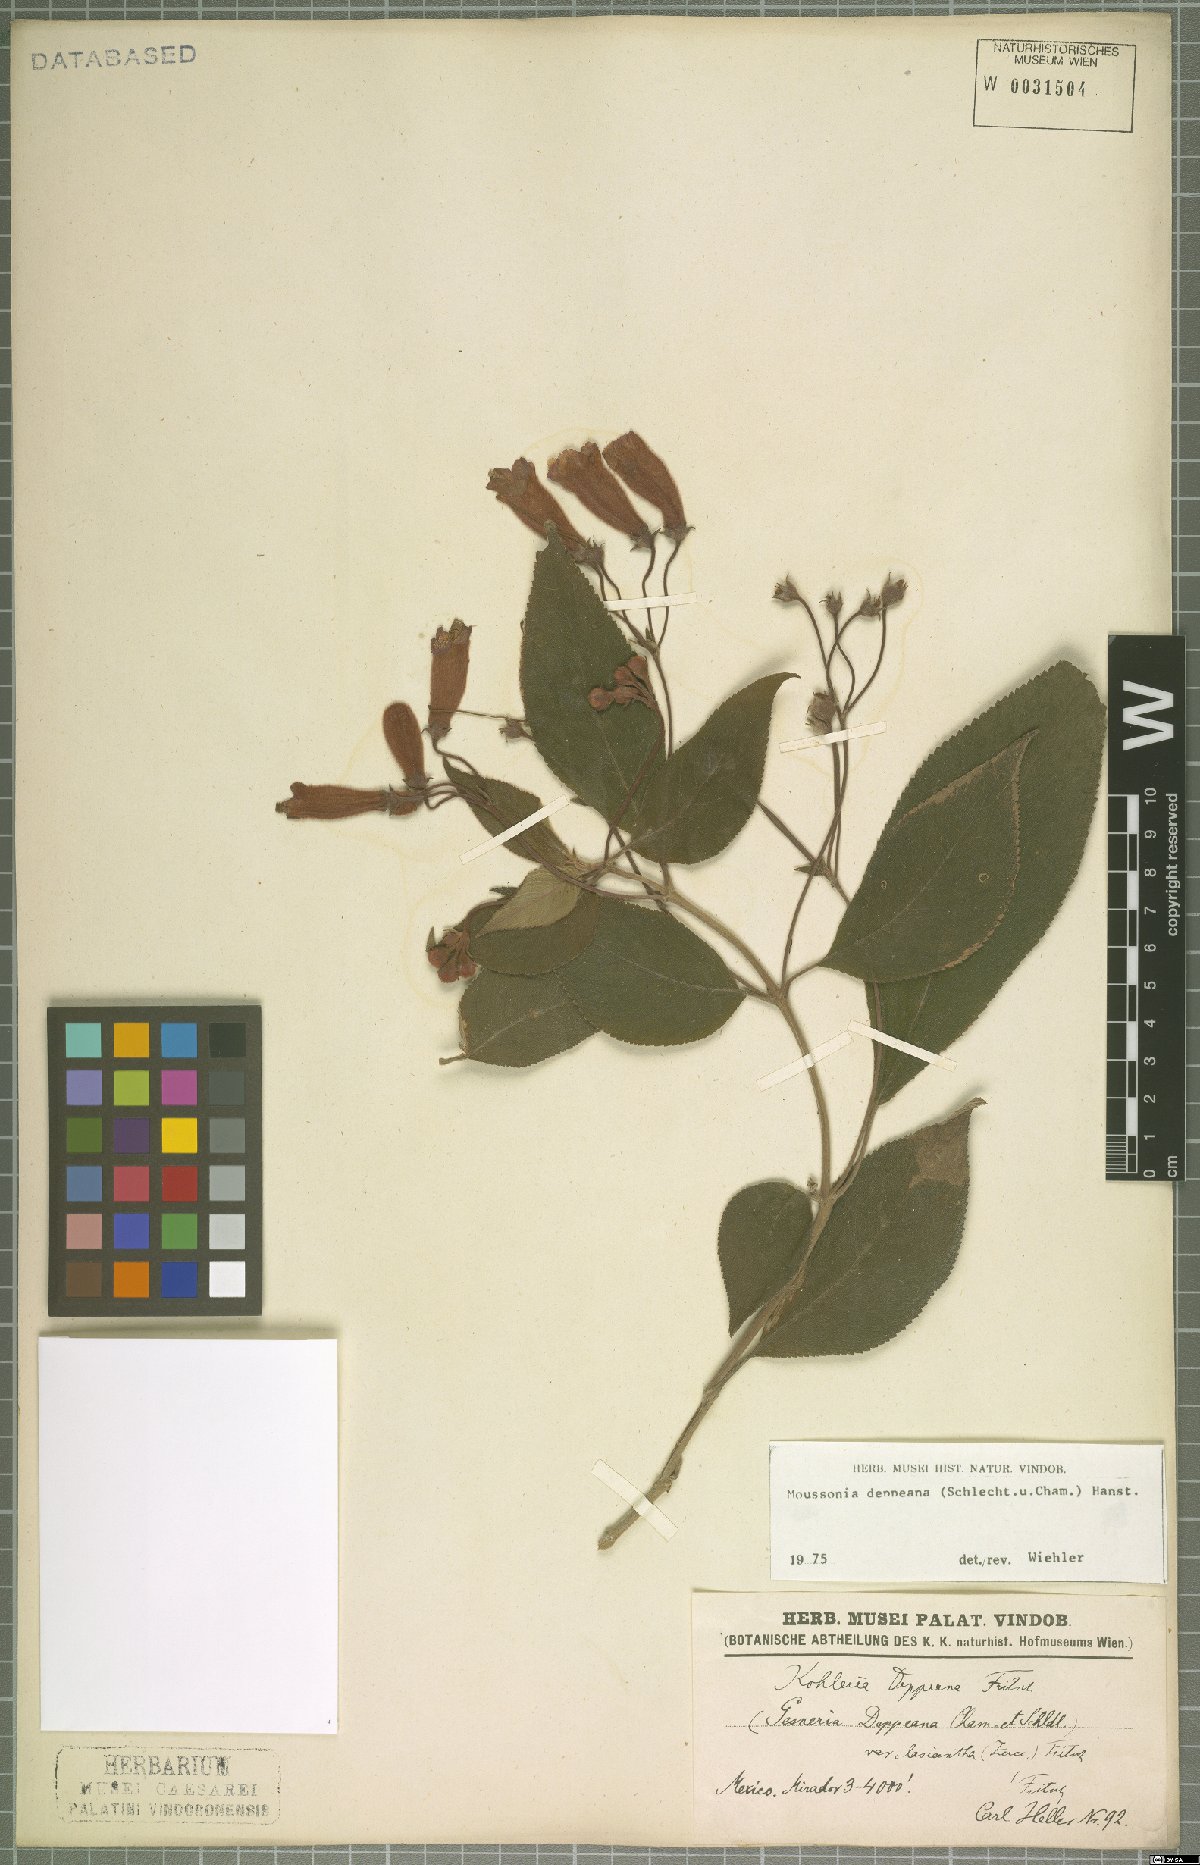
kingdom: Plantae
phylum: Tracheophyta
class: Magnoliopsida
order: Lamiales
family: Gesneriaceae
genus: Moussonia
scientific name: Moussonia deppeana
